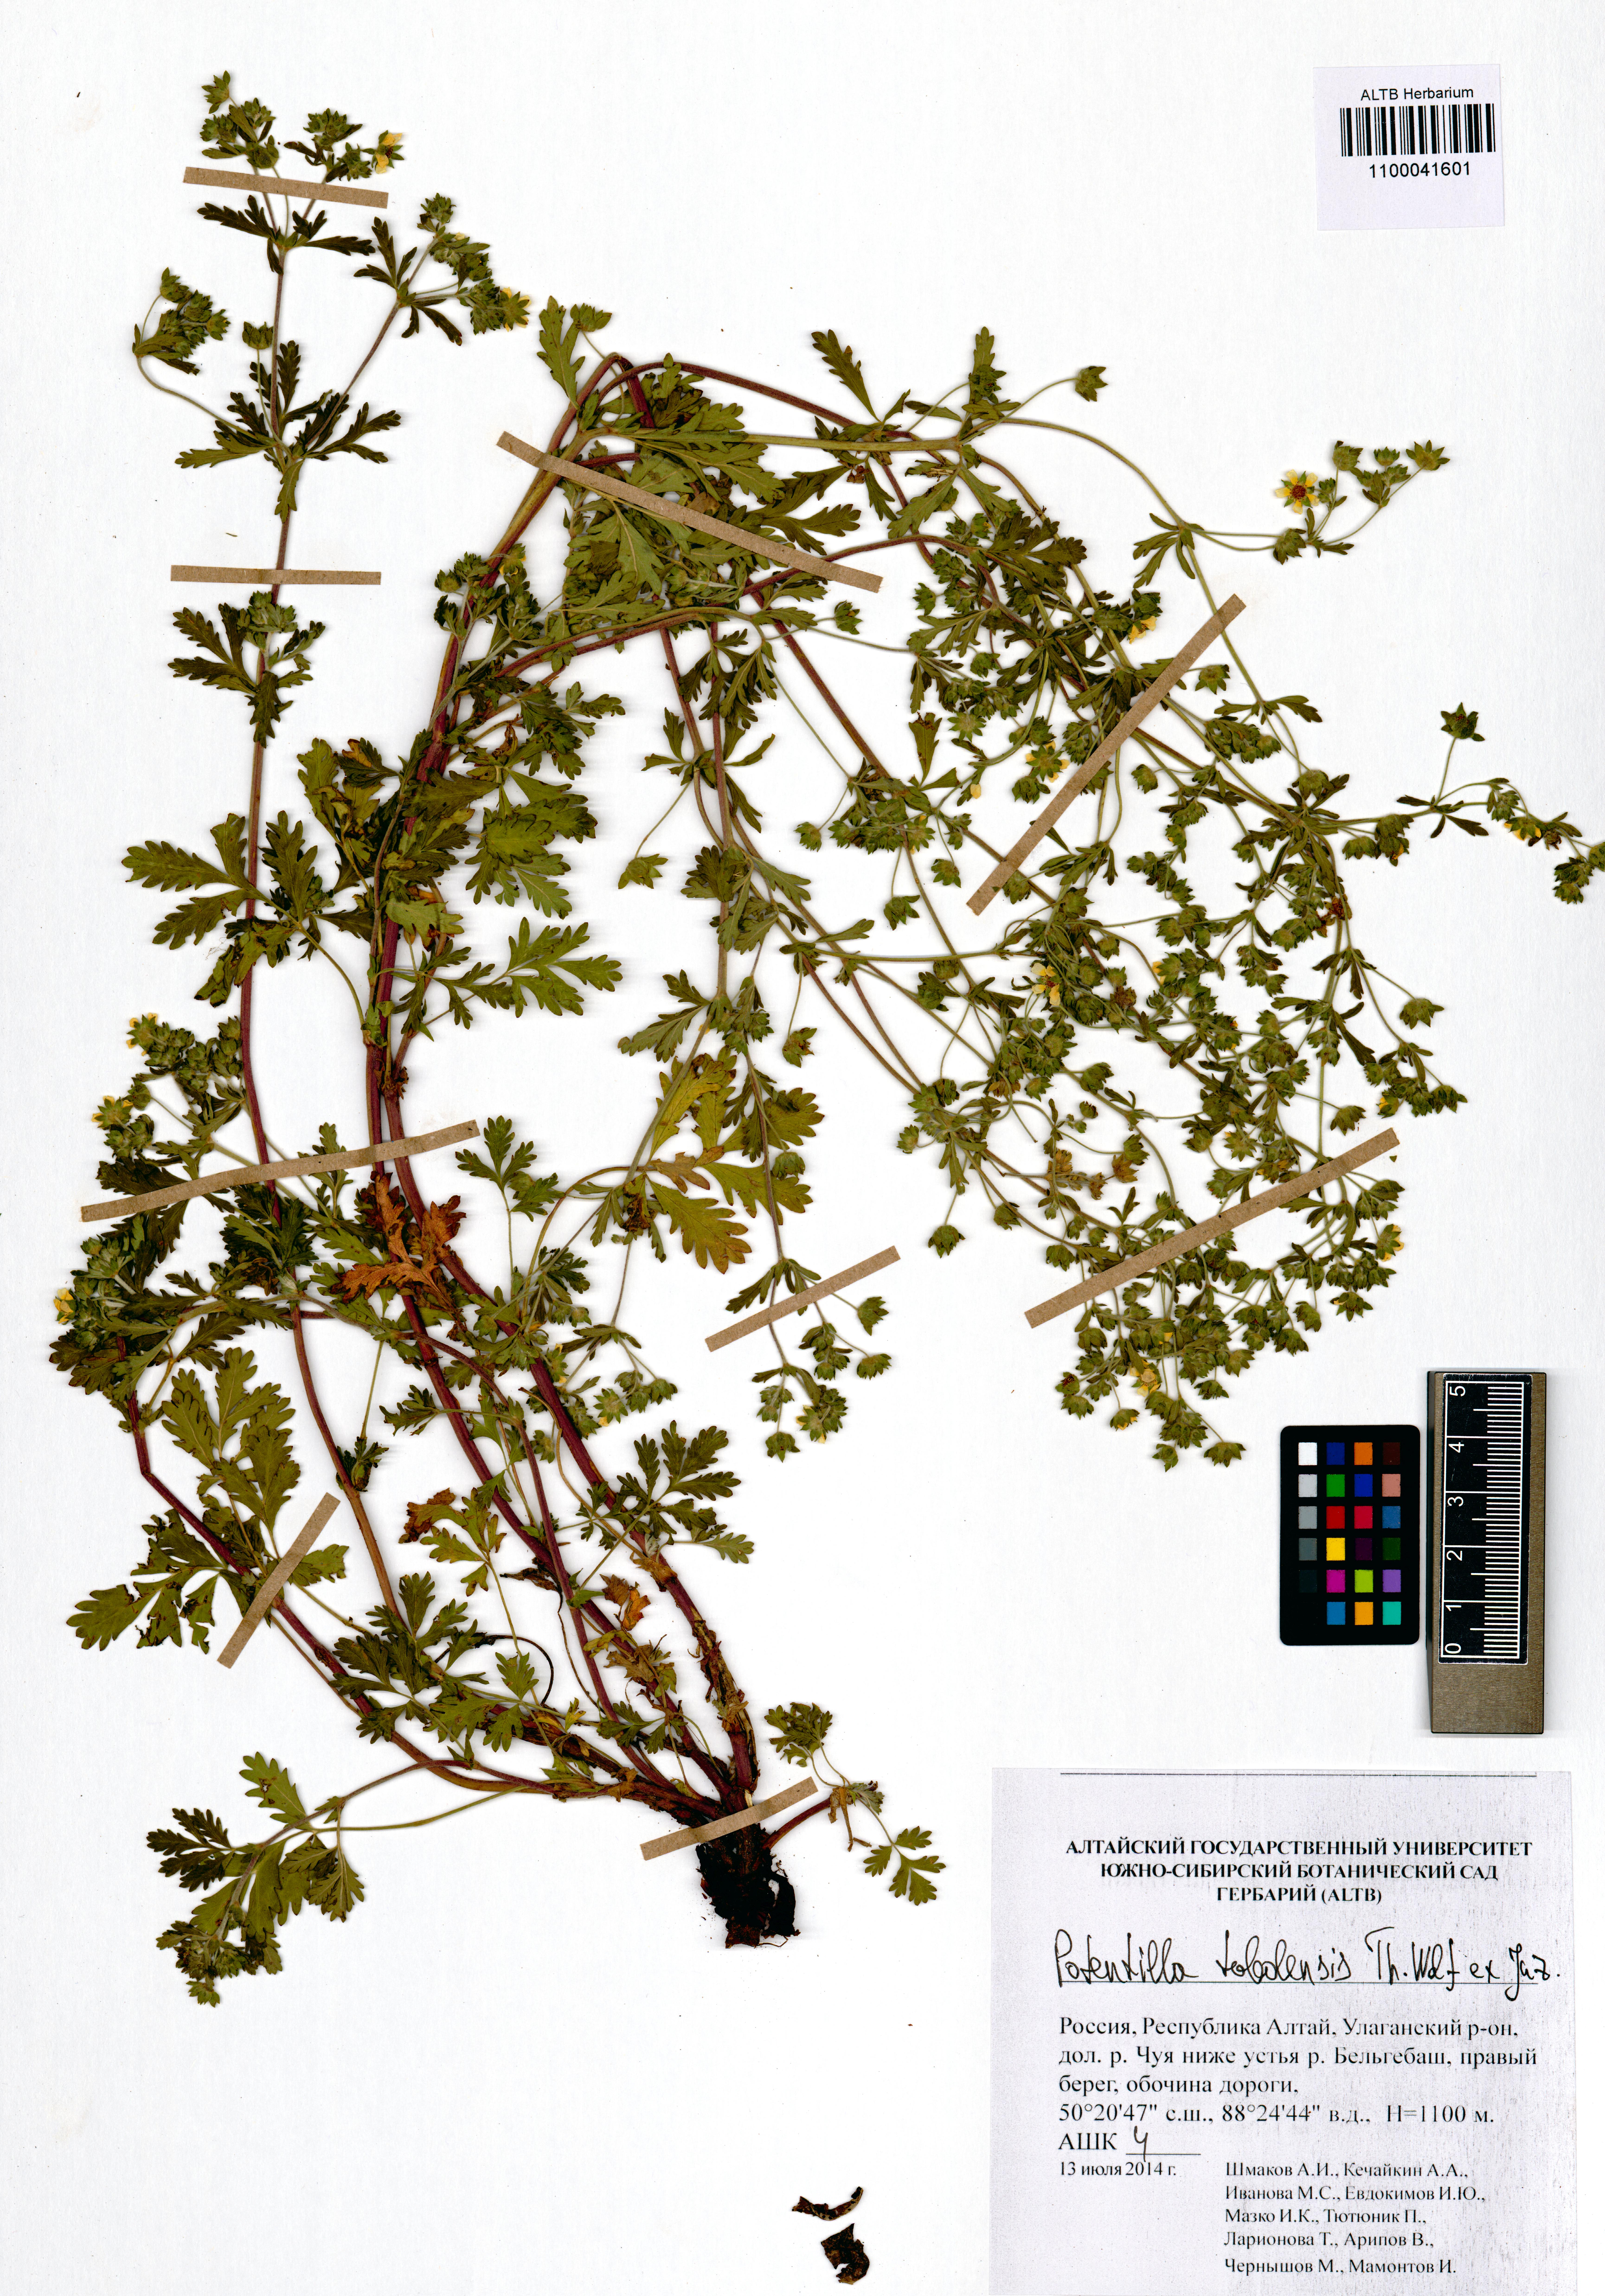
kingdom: Plantae
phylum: Tracheophyta
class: Magnoliopsida
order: Rosales
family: Rosaceae
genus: Potentilla
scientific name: Potentilla tobolensis
